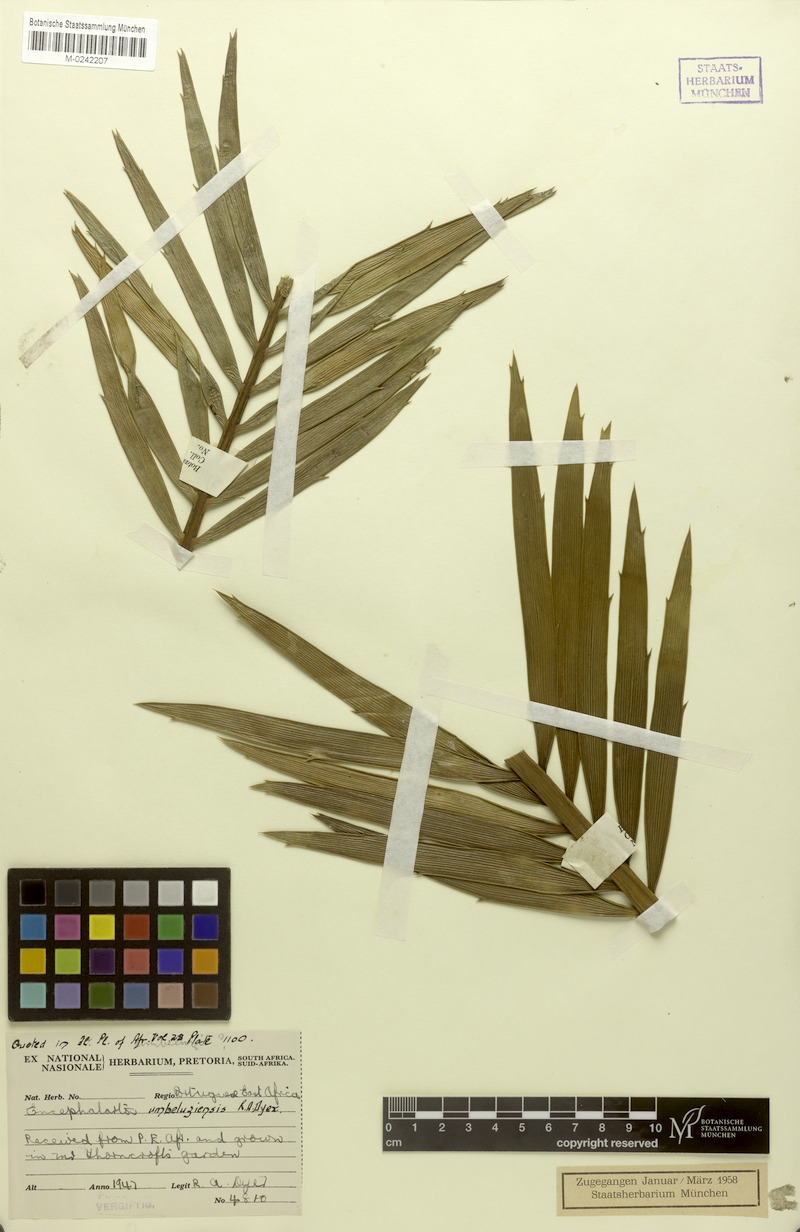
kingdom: Plantae
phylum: Tracheophyta
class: Cycadopsida
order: Cycadales
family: Zamiaceae
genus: Encephalartos
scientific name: Encephalartos umbeluziensis
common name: Umbeluzi cycad
